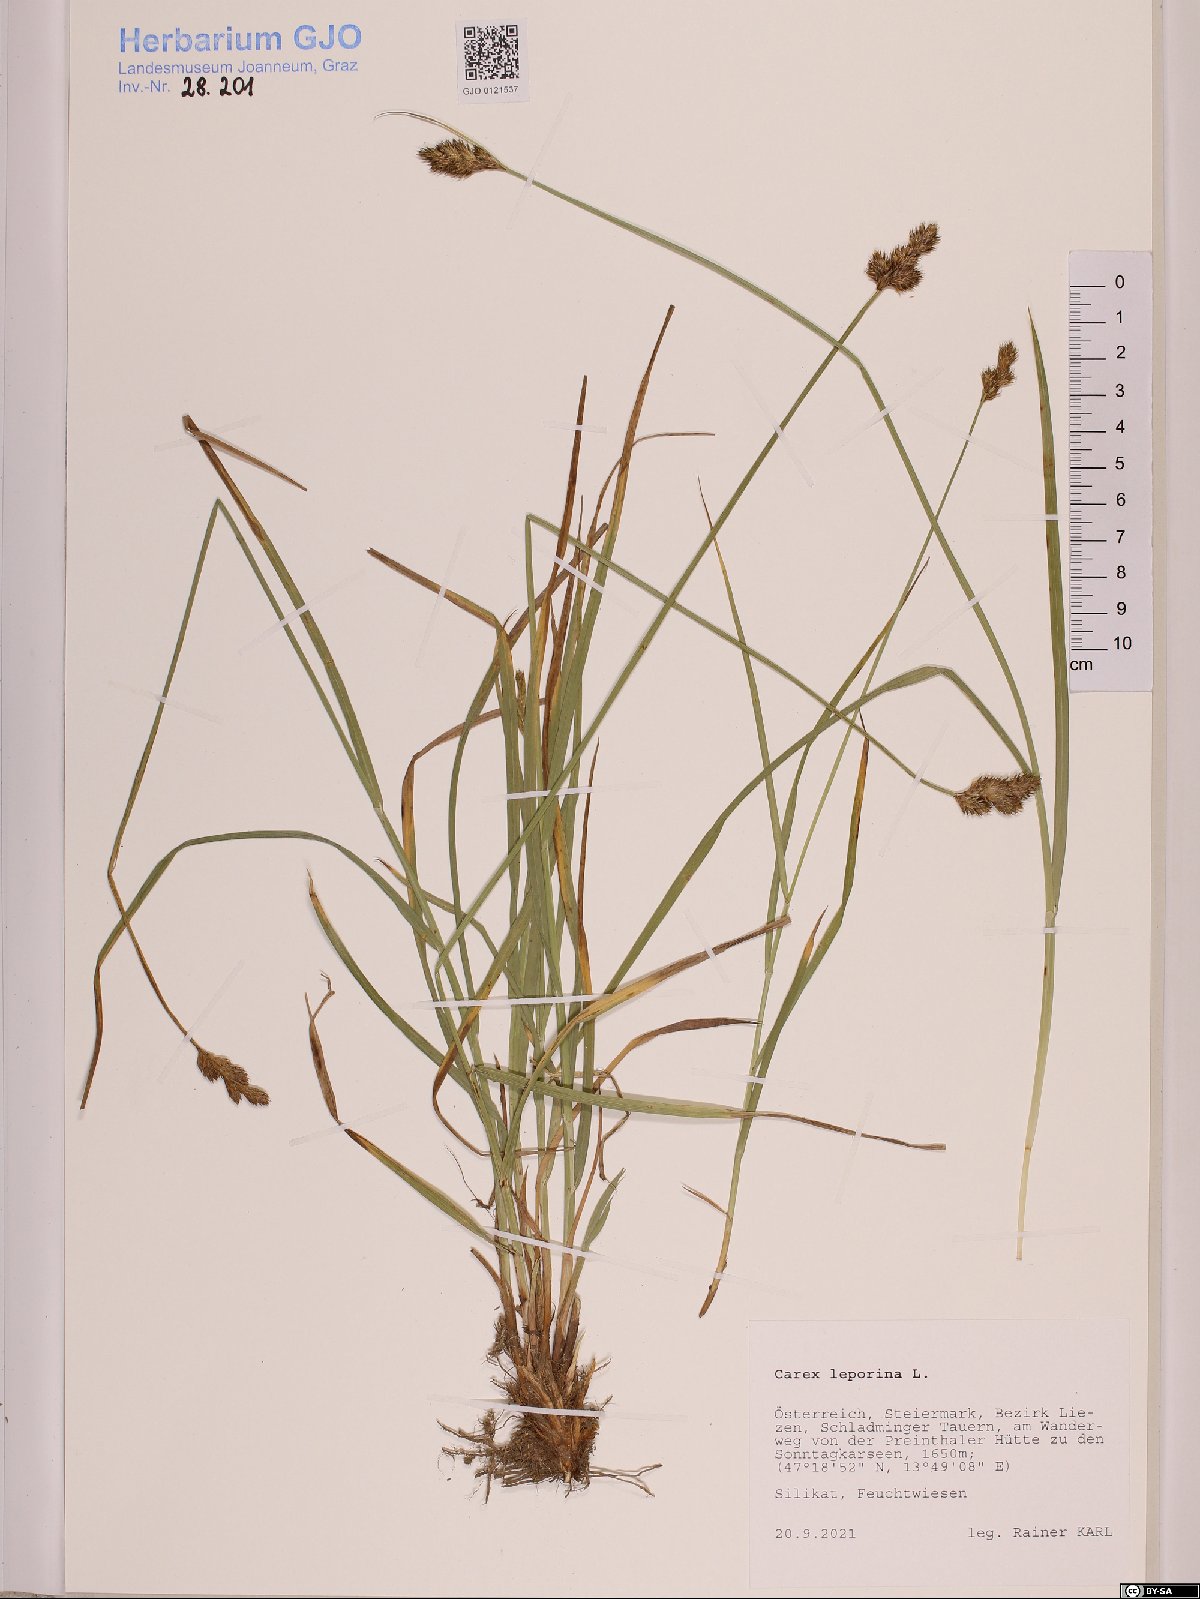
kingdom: Plantae
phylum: Tracheophyta
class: Liliopsida
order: Poales
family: Cyperaceae
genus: Carex
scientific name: Carex leporina
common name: Oval sedge
